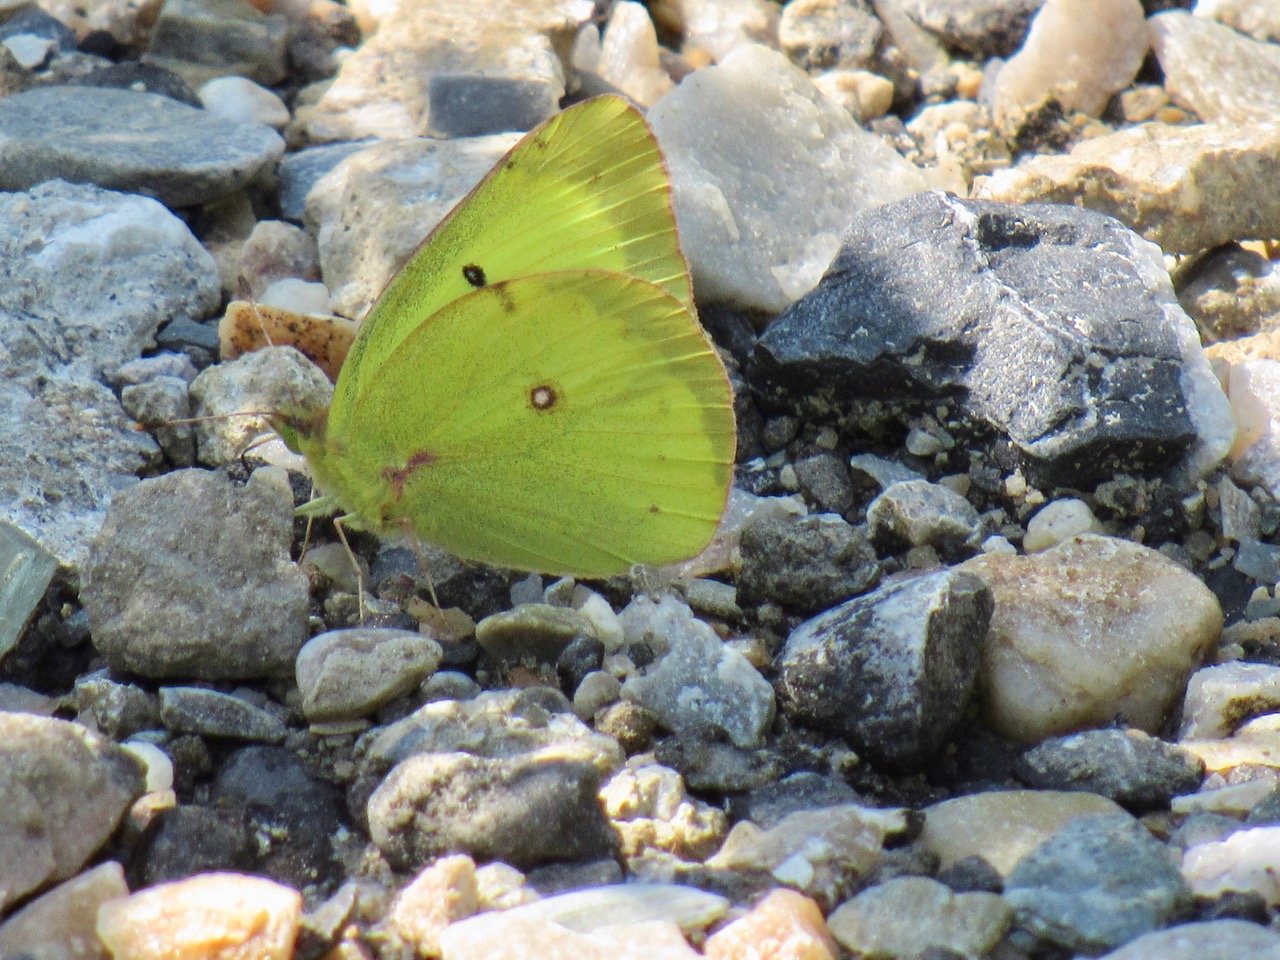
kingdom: Animalia
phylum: Arthropoda
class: Insecta
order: Lepidoptera
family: Pieridae
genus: Colias
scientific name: Colias philodice
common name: Clouded Sulphur
